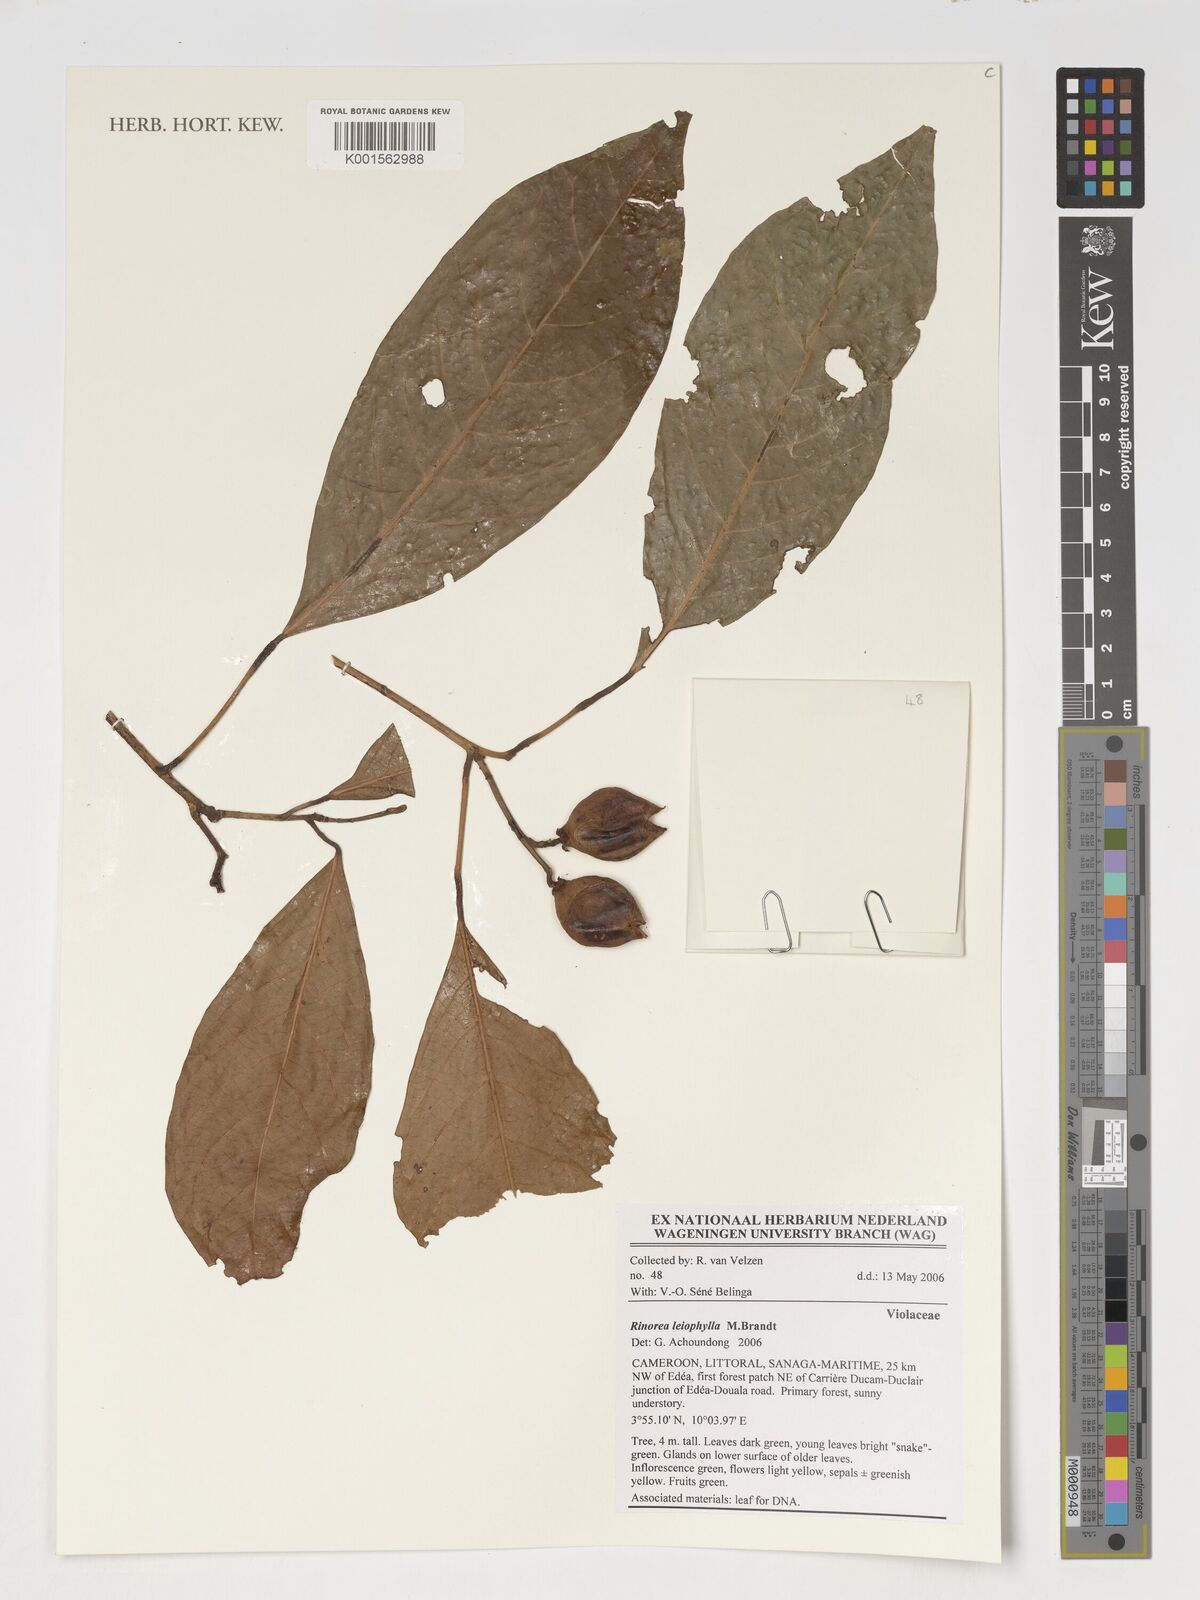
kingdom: Plantae
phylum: Tracheophyta
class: Magnoliopsida
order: Malpighiales
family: Violaceae
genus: Rinorea
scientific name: Rinorea leiophylla
